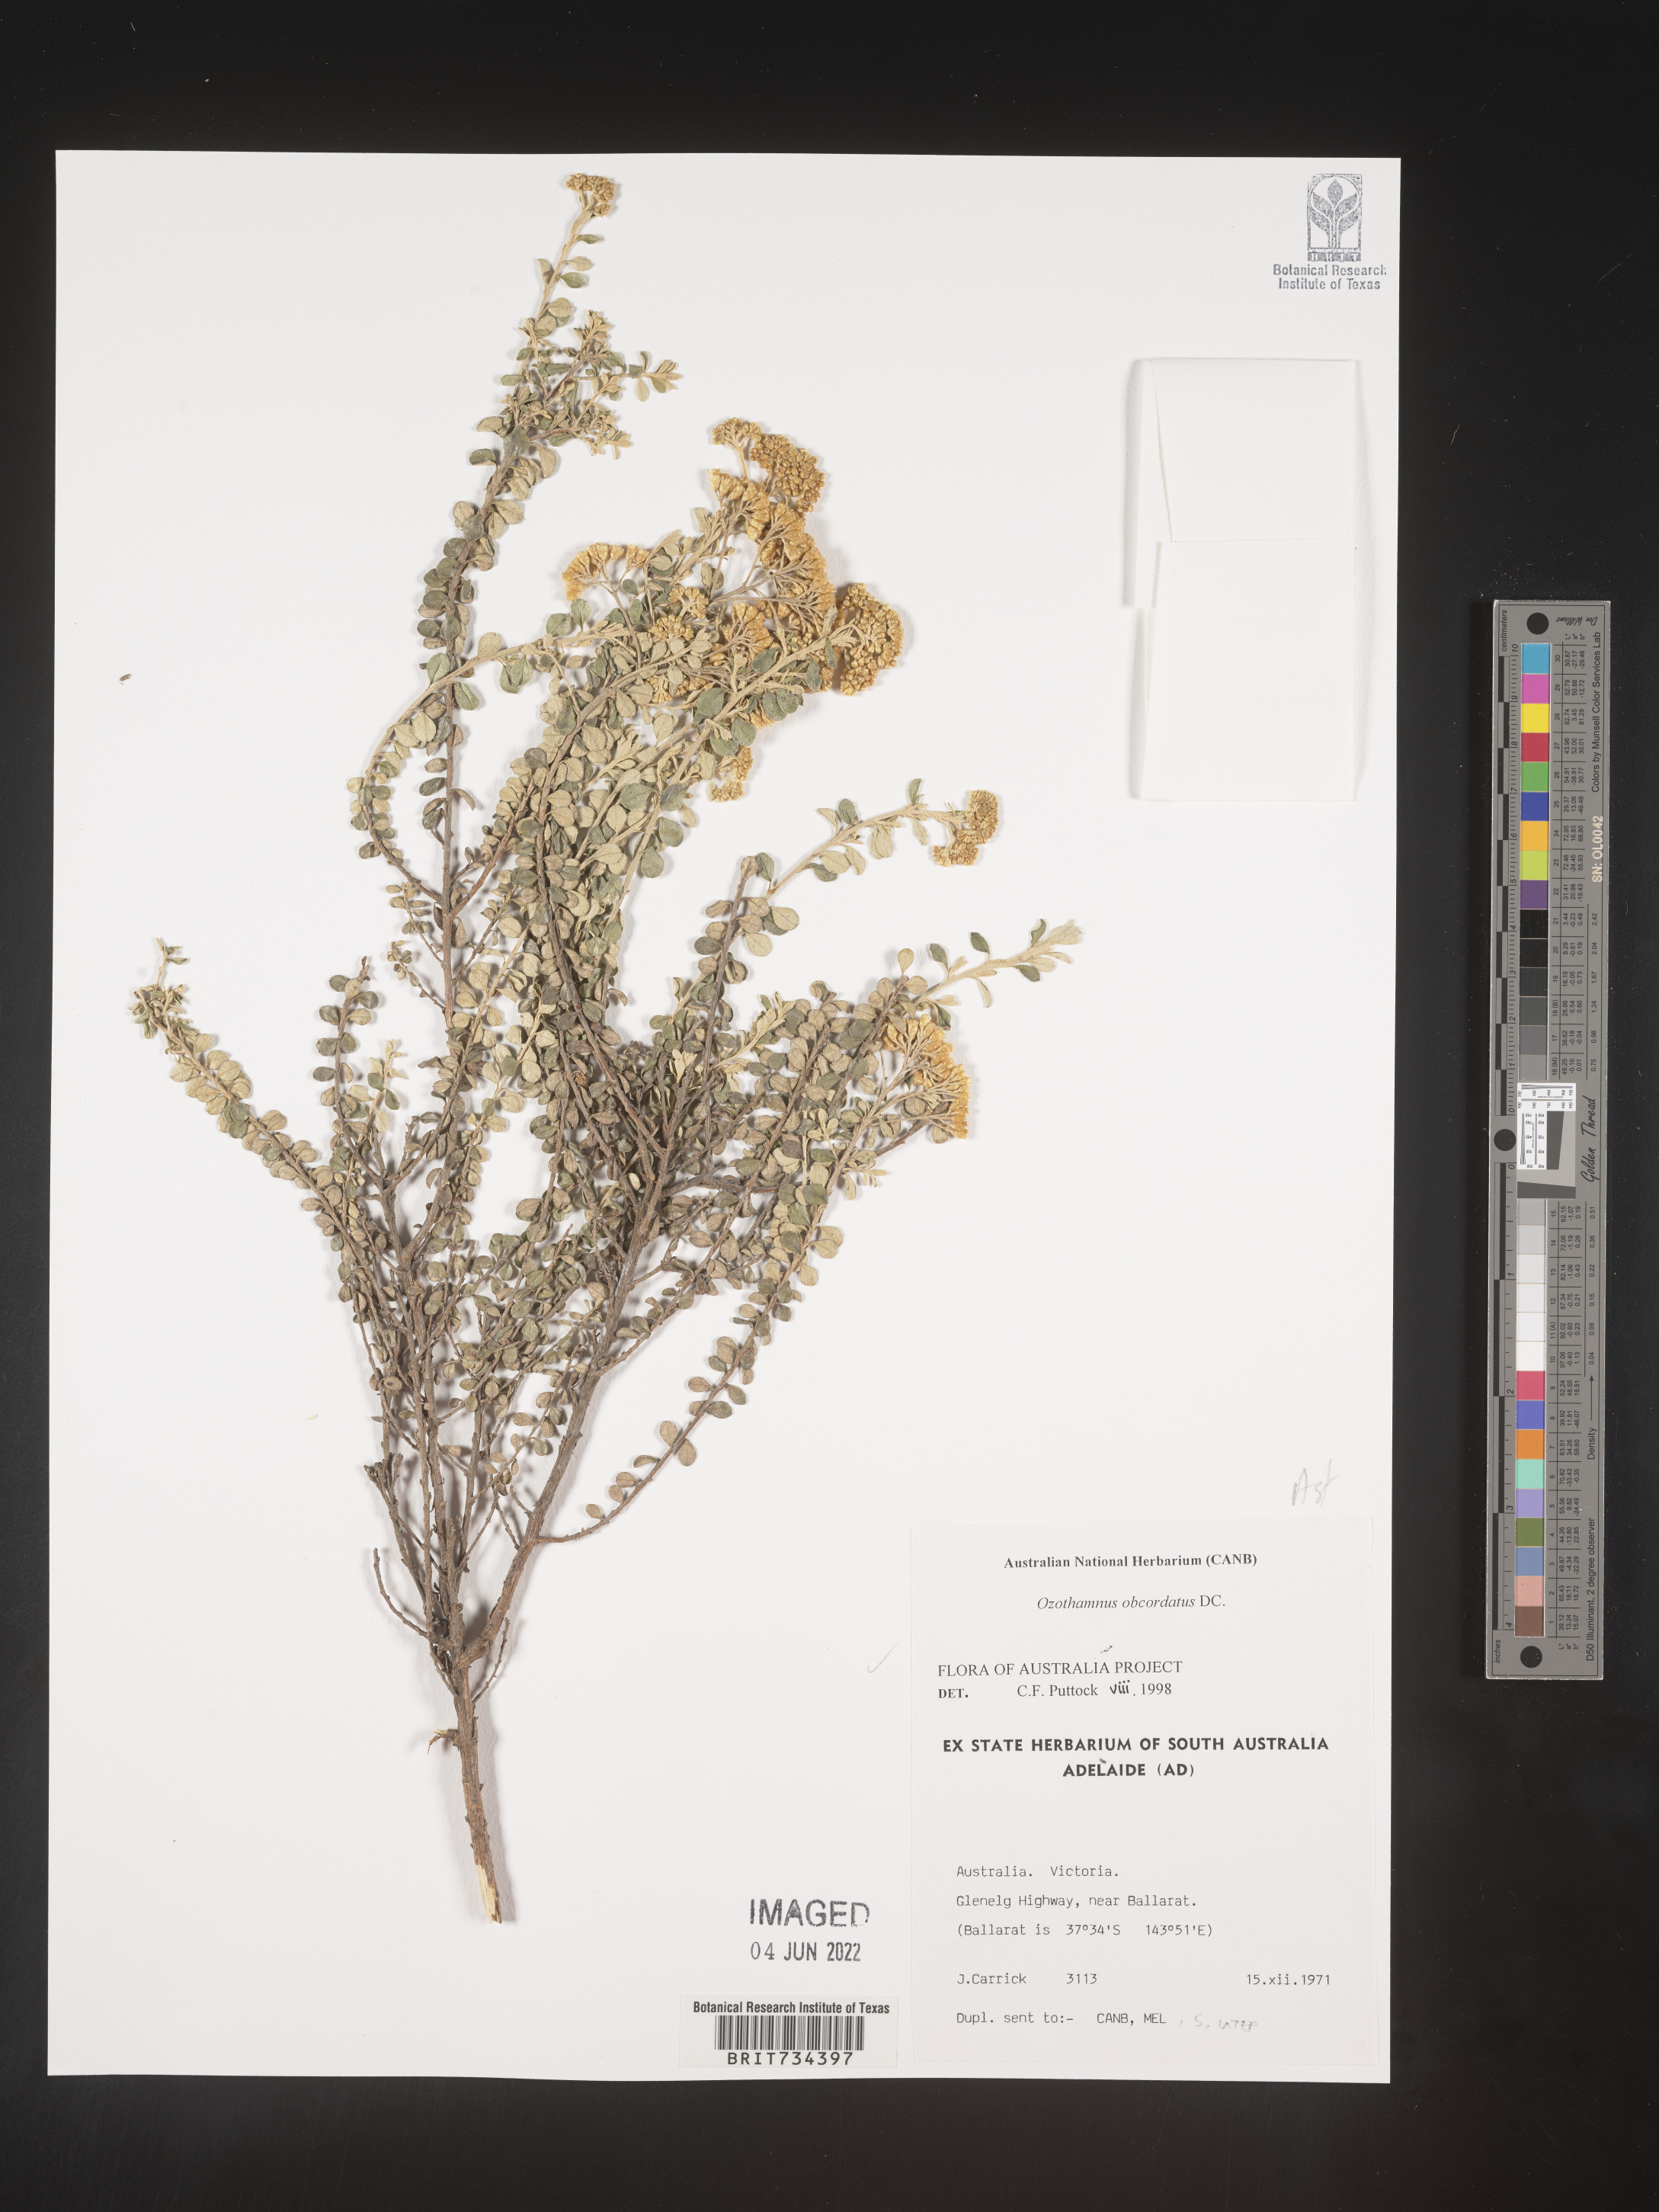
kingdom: Plantae
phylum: Tracheophyta
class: Magnoliopsida
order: Asterales
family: Asteraceae
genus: Ozothamnus
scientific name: Ozothamnus
